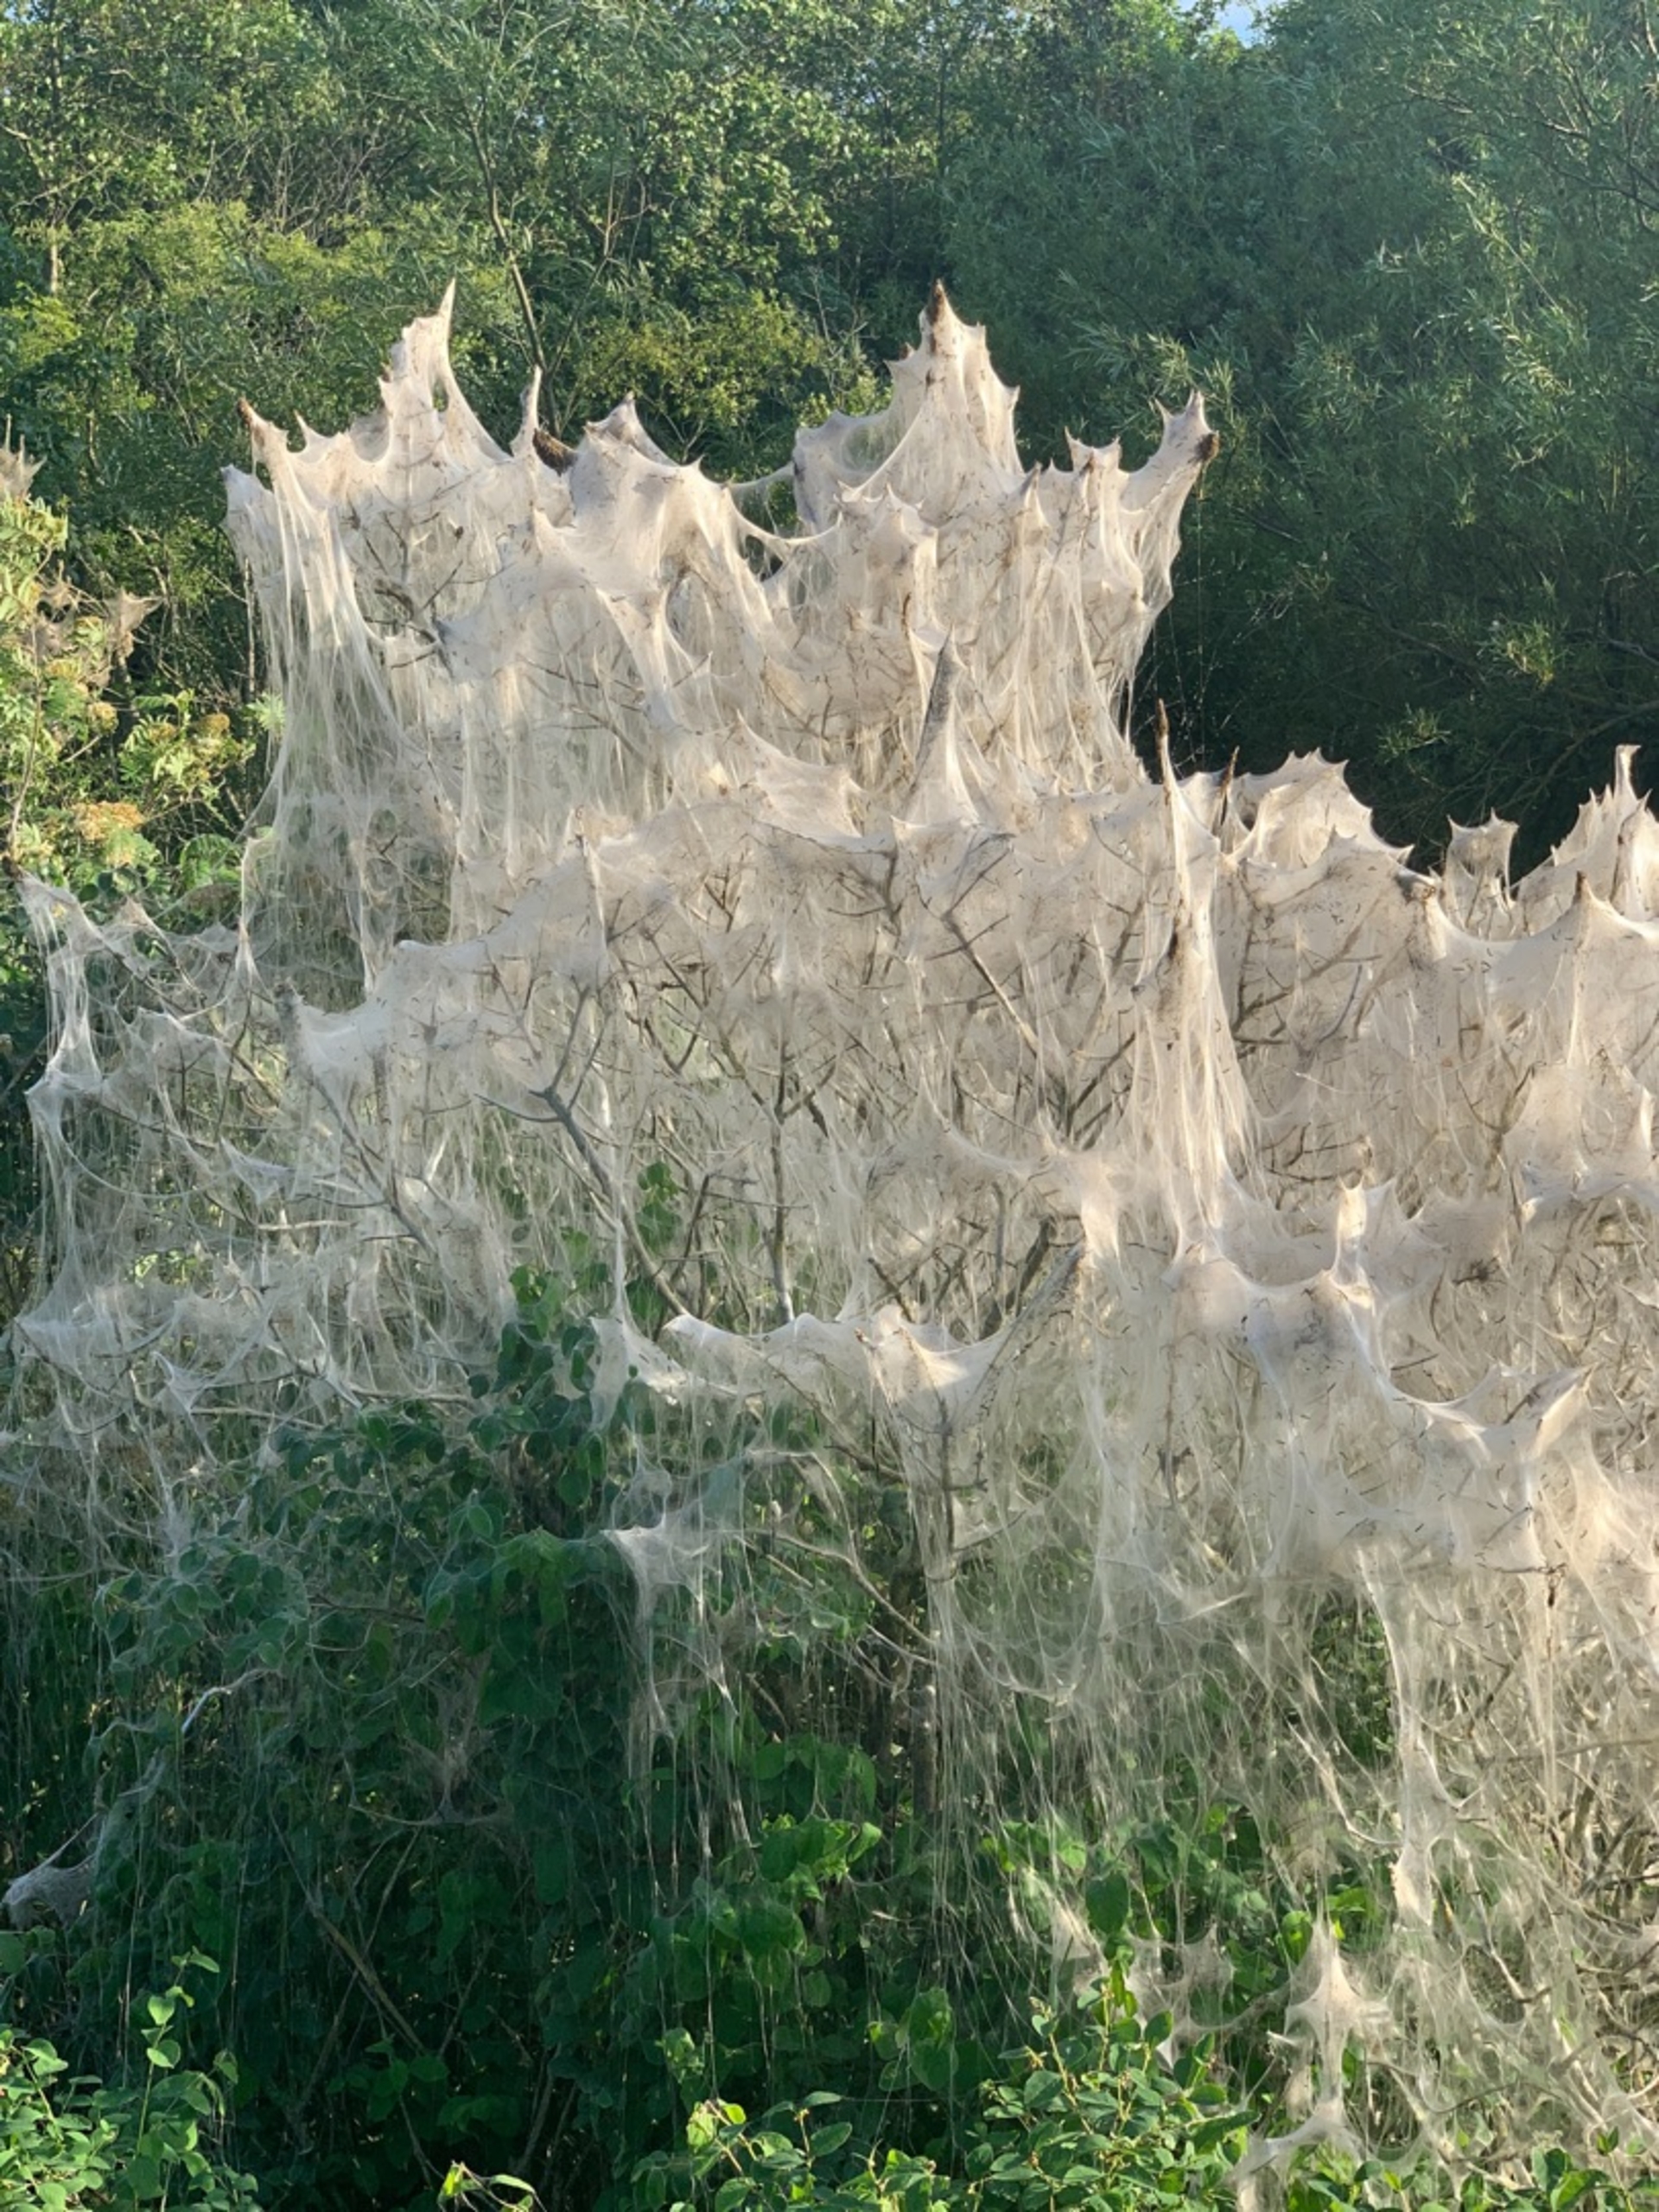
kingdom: Animalia
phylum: Arthropoda
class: Insecta
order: Lepidoptera
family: Yponomeutidae
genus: Yponomeuta
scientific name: Yponomeuta
